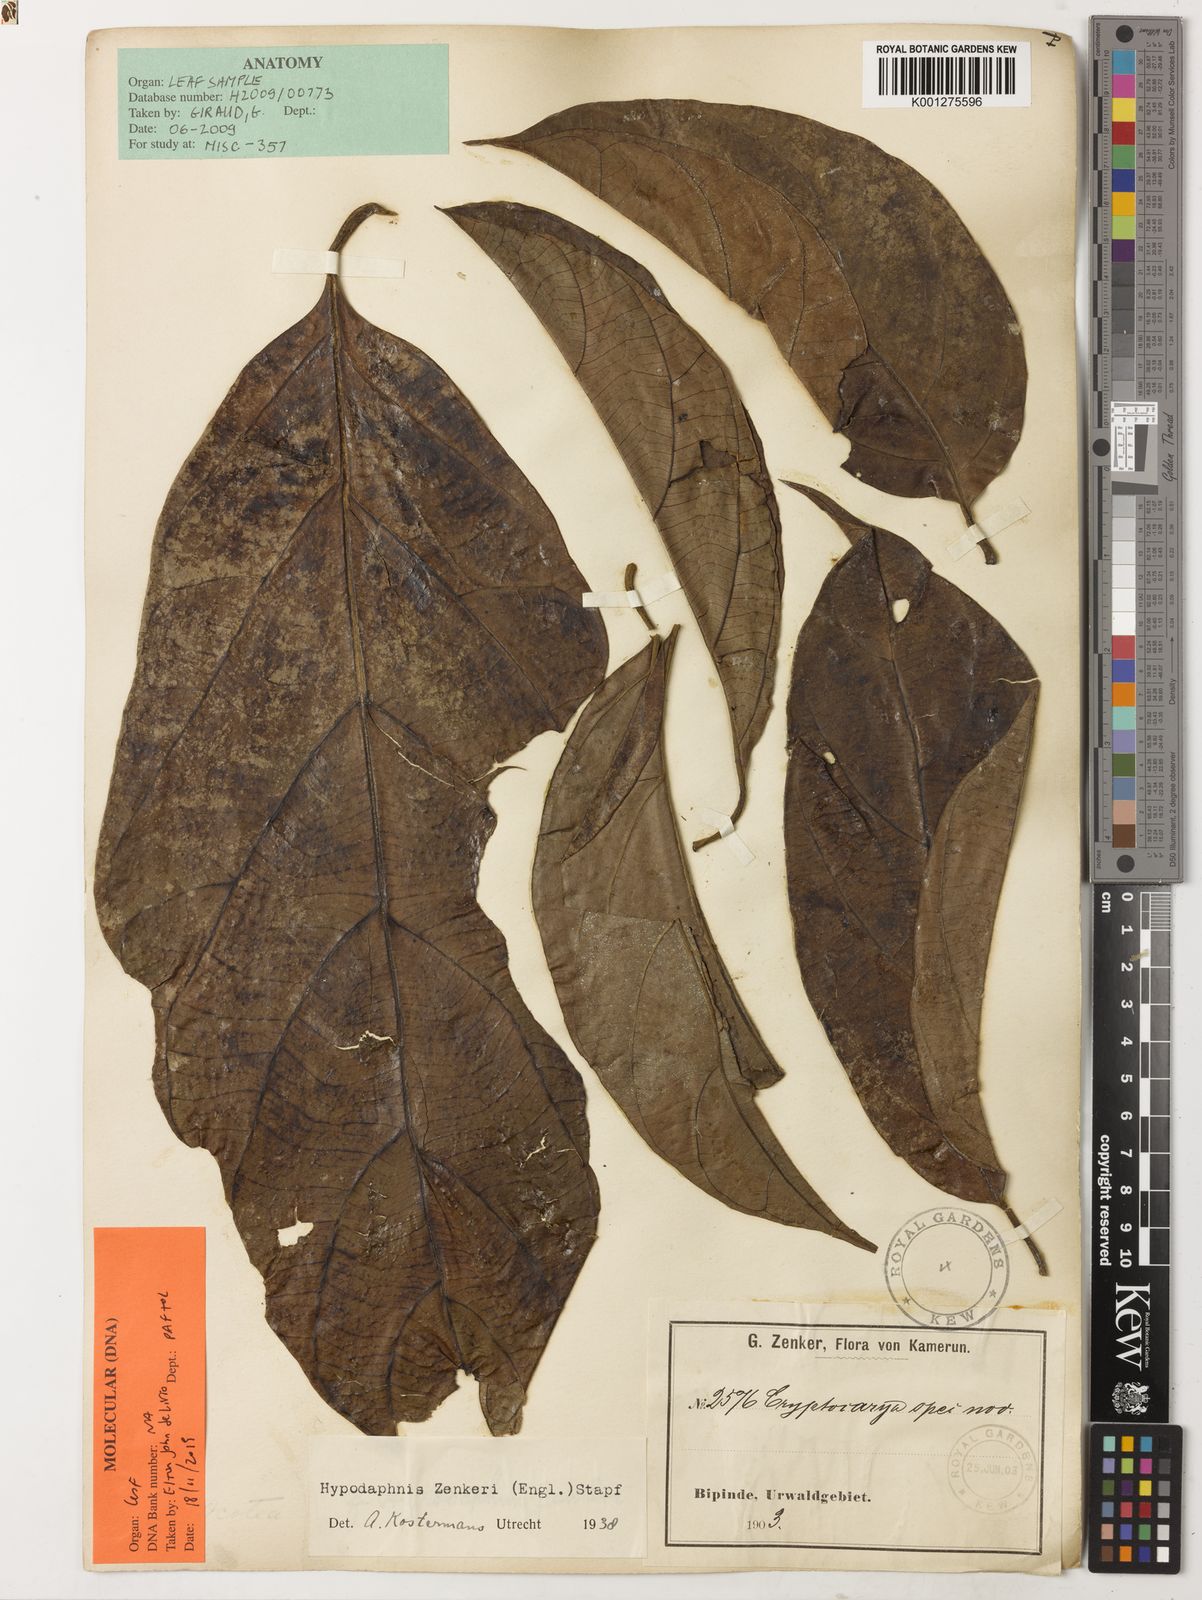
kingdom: Plantae
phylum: Tracheophyta
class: Magnoliopsida
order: Laurales
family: Lauraceae
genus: Hypodaphnis
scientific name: Hypodaphnis zenkeri
